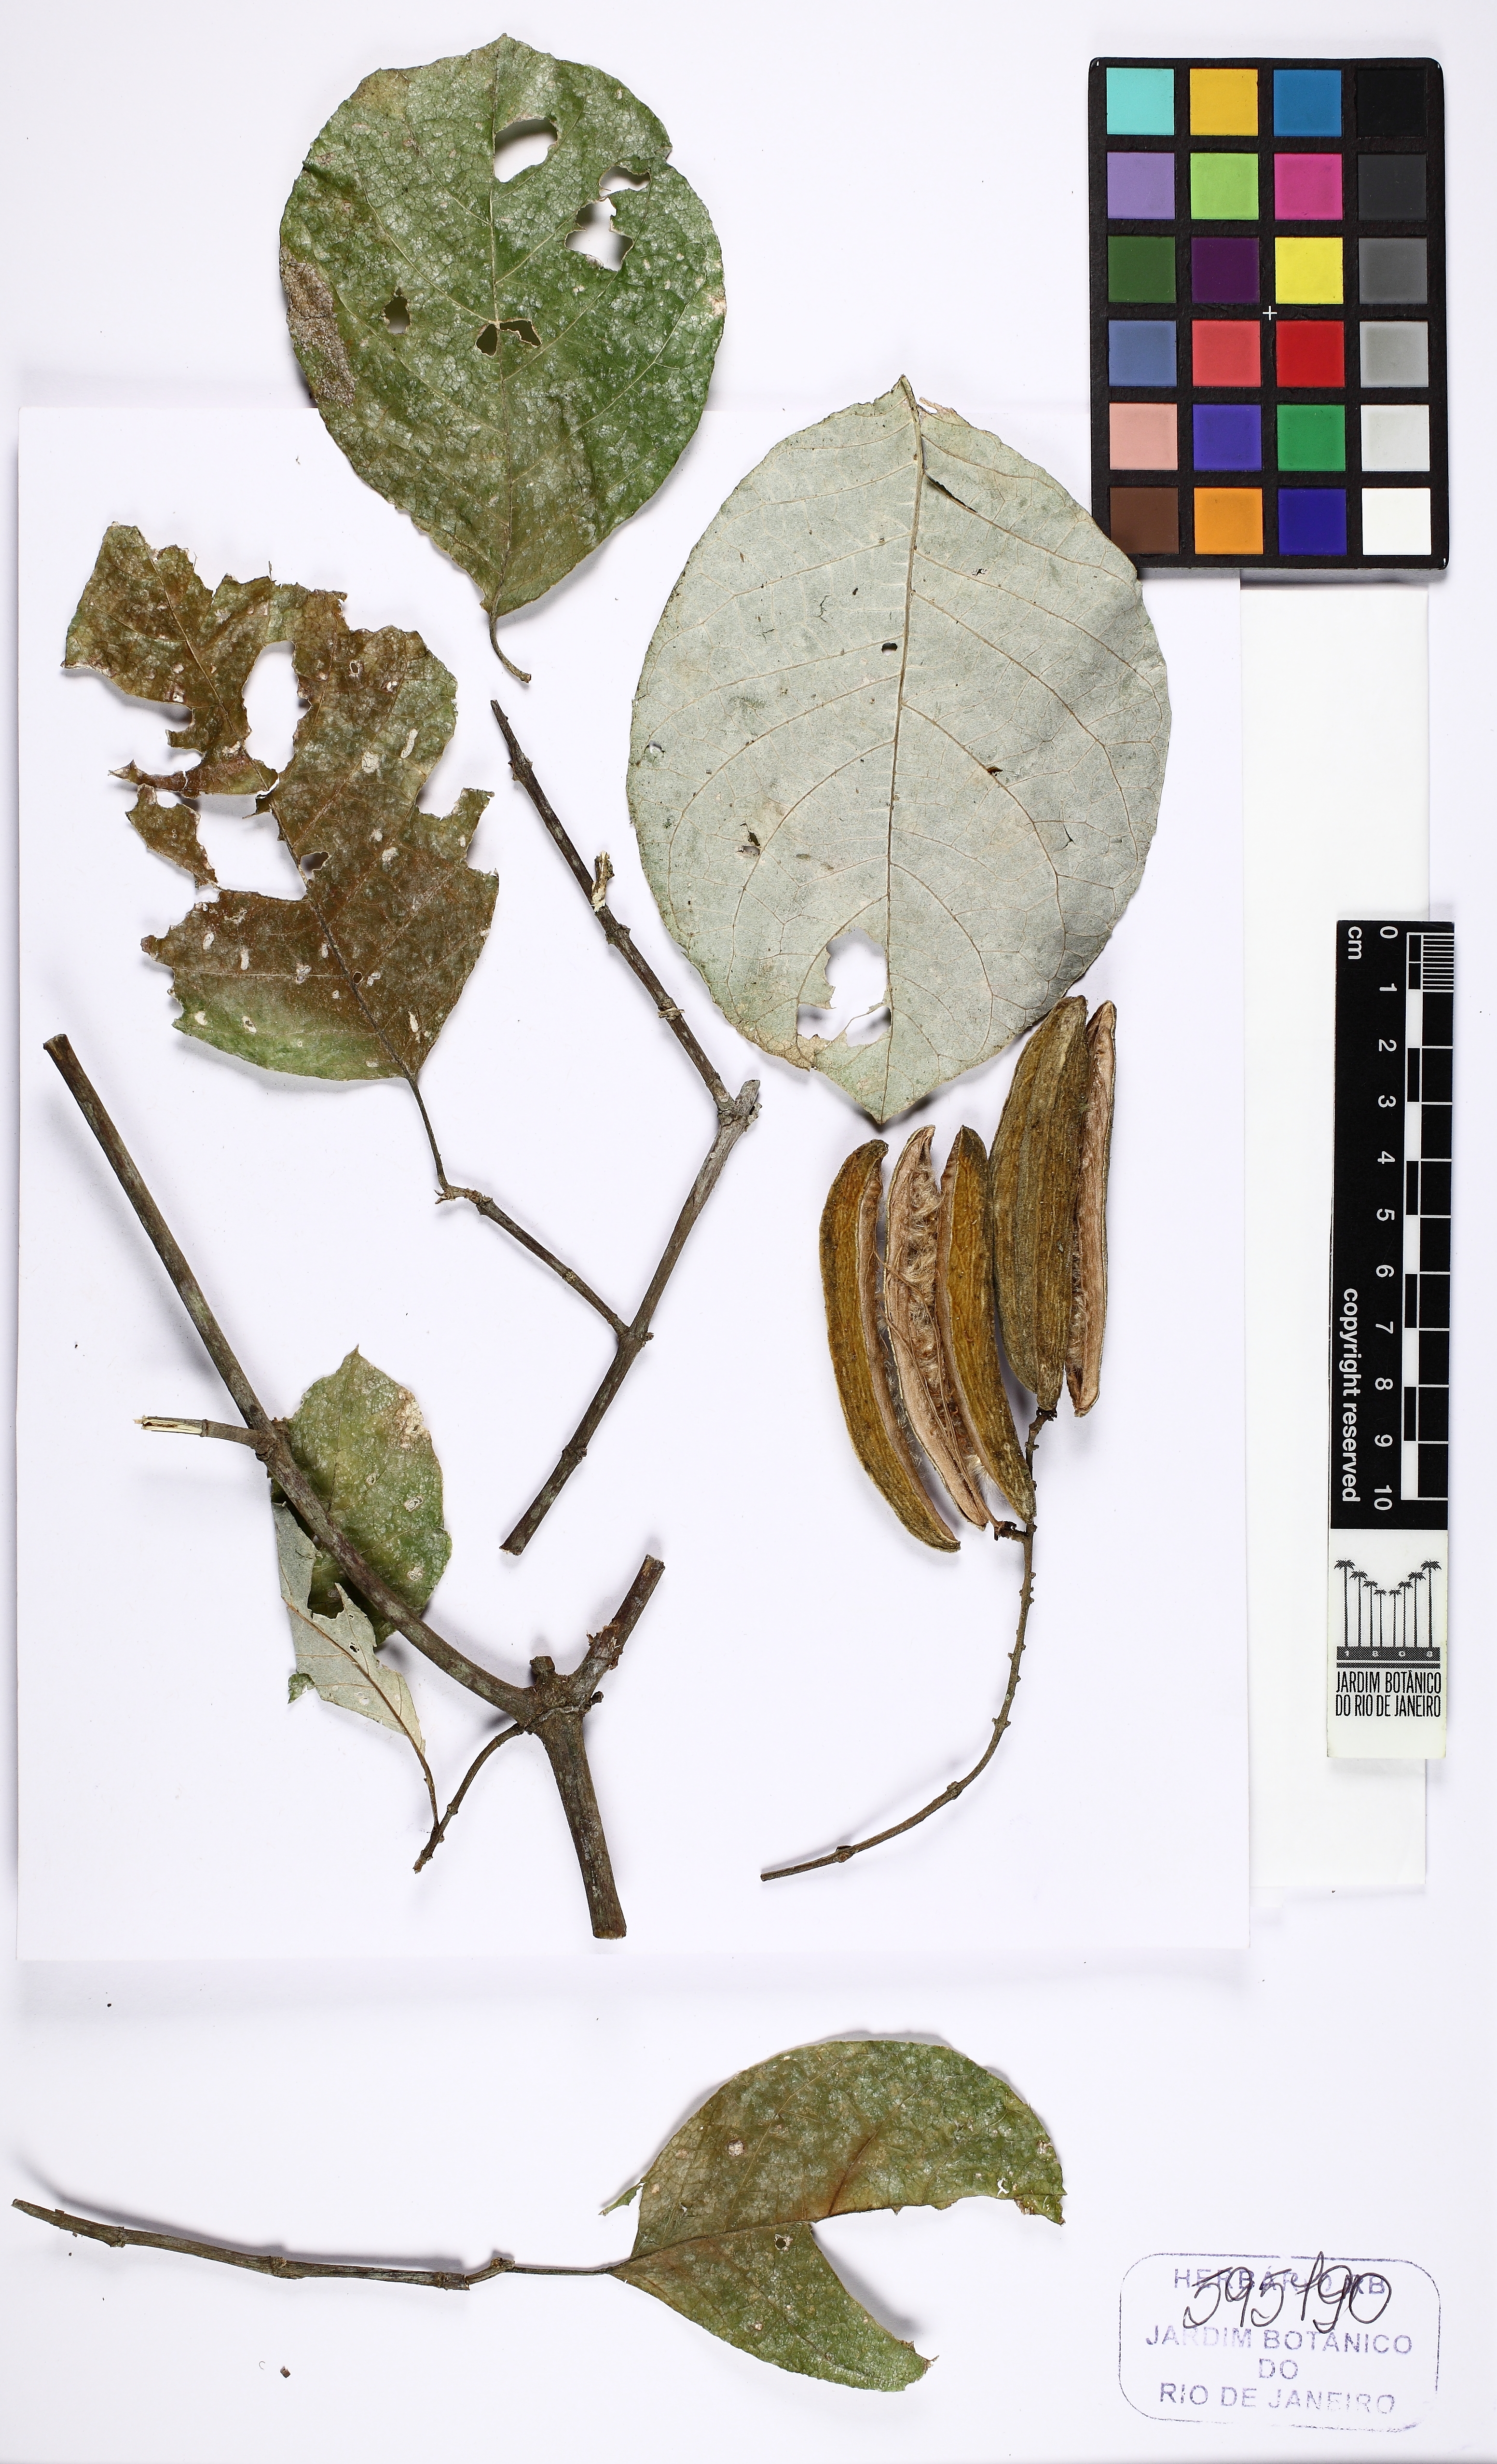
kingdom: Plantae
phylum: Tracheophyta
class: Magnoliopsida
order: Malpighiales
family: Trigoniaceae
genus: Trigonia
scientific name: Trigonia
